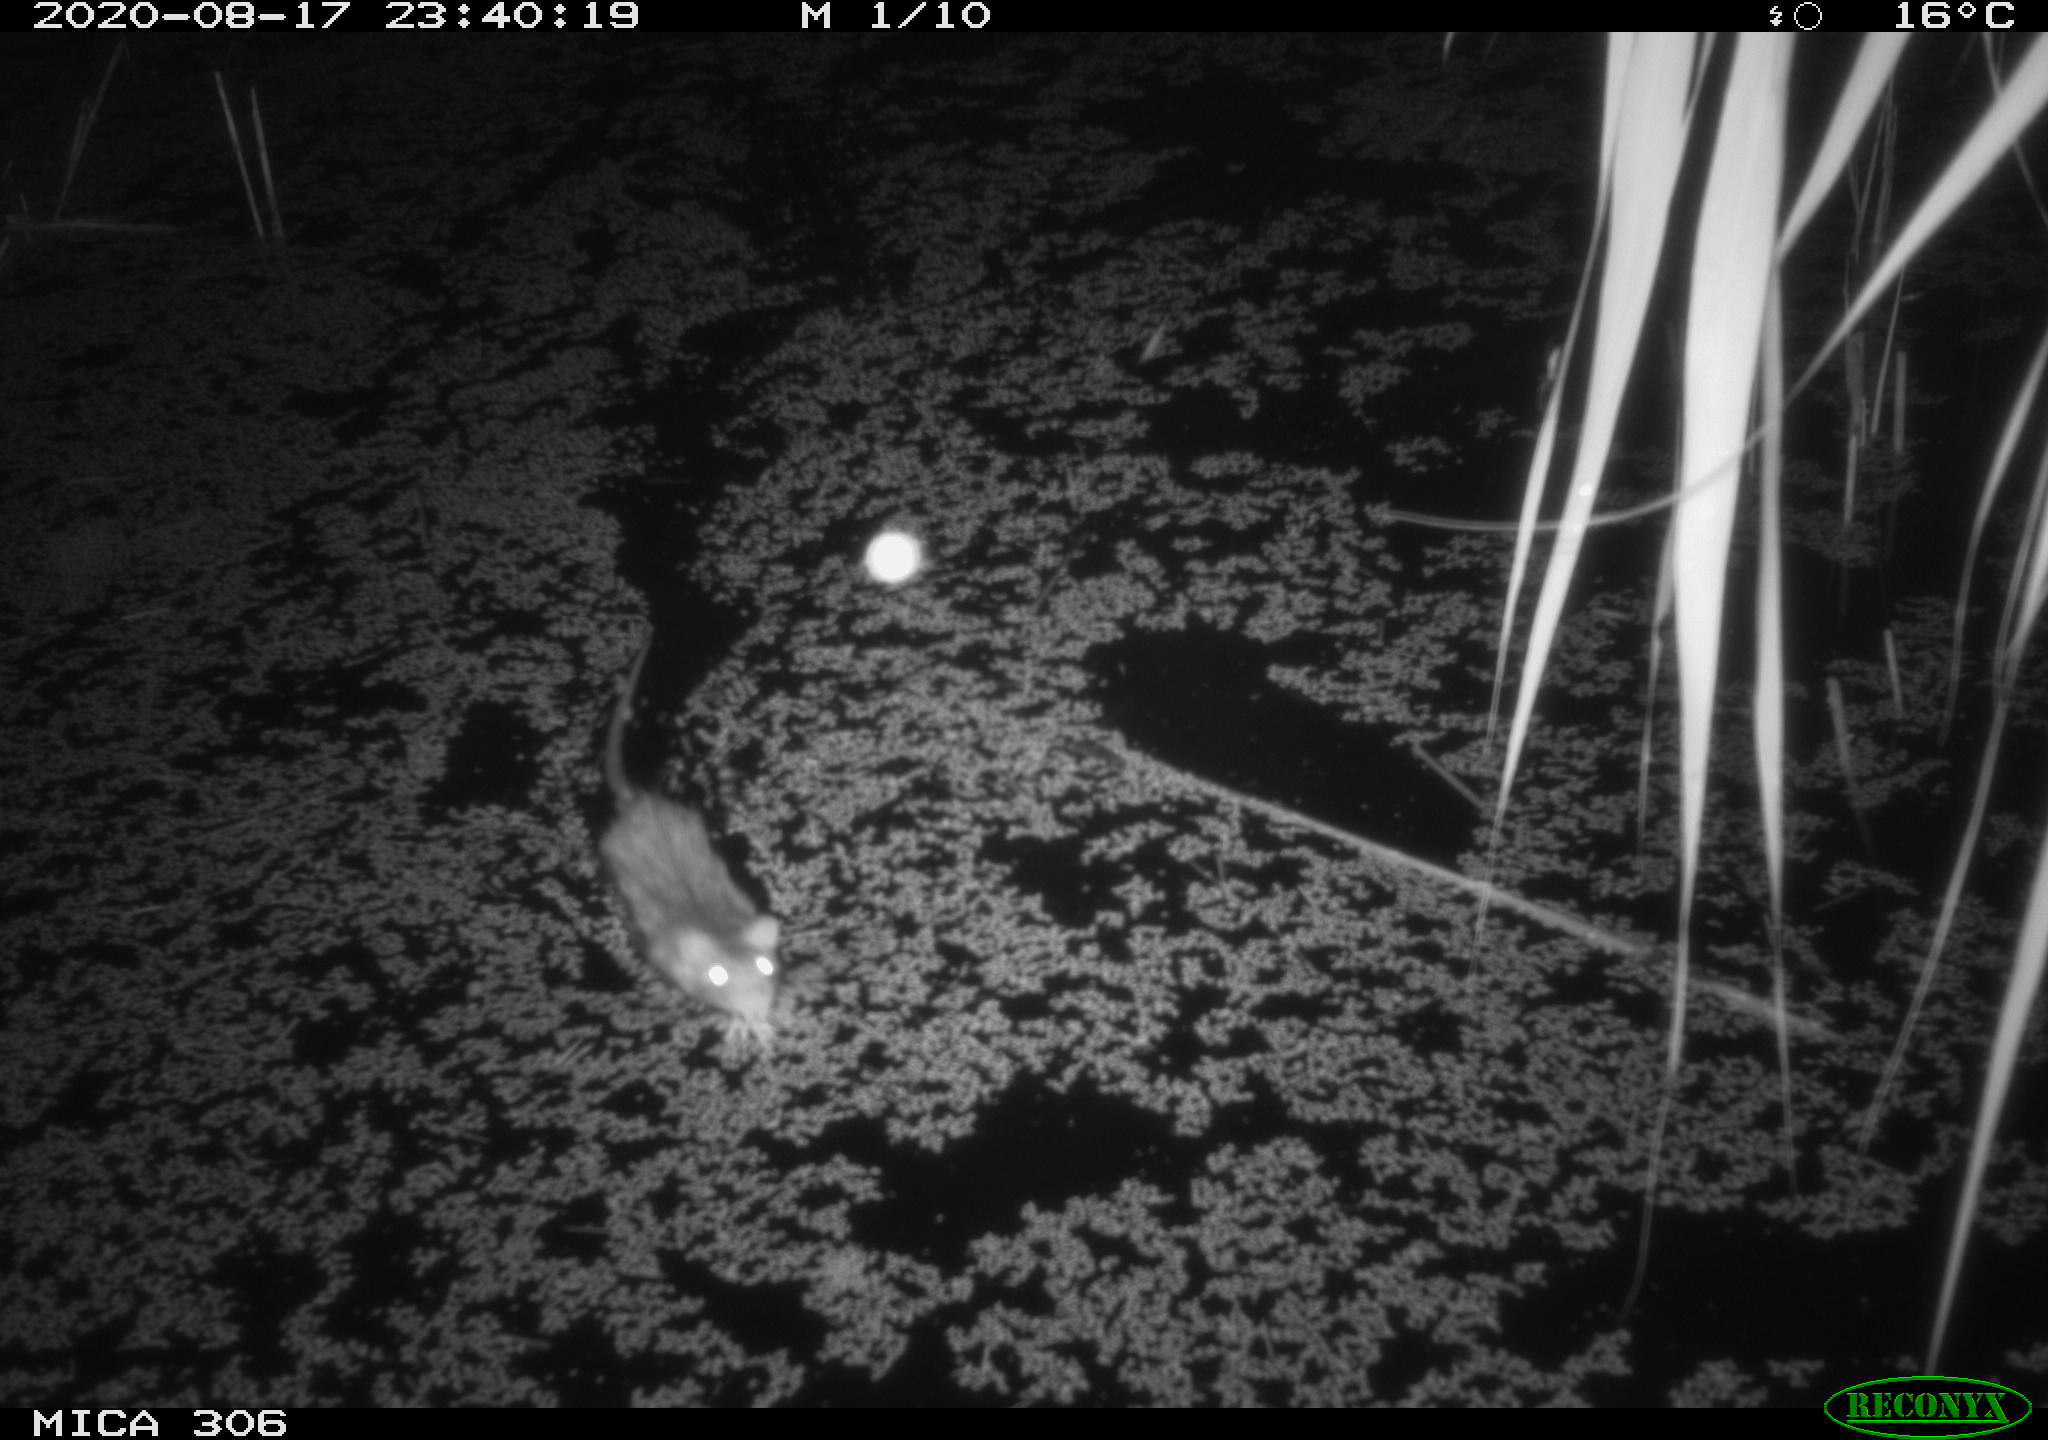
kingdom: Animalia
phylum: Chordata
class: Mammalia
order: Rodentia
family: Muridae
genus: Rattus
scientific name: Rattus norvegicus
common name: Brown rat
